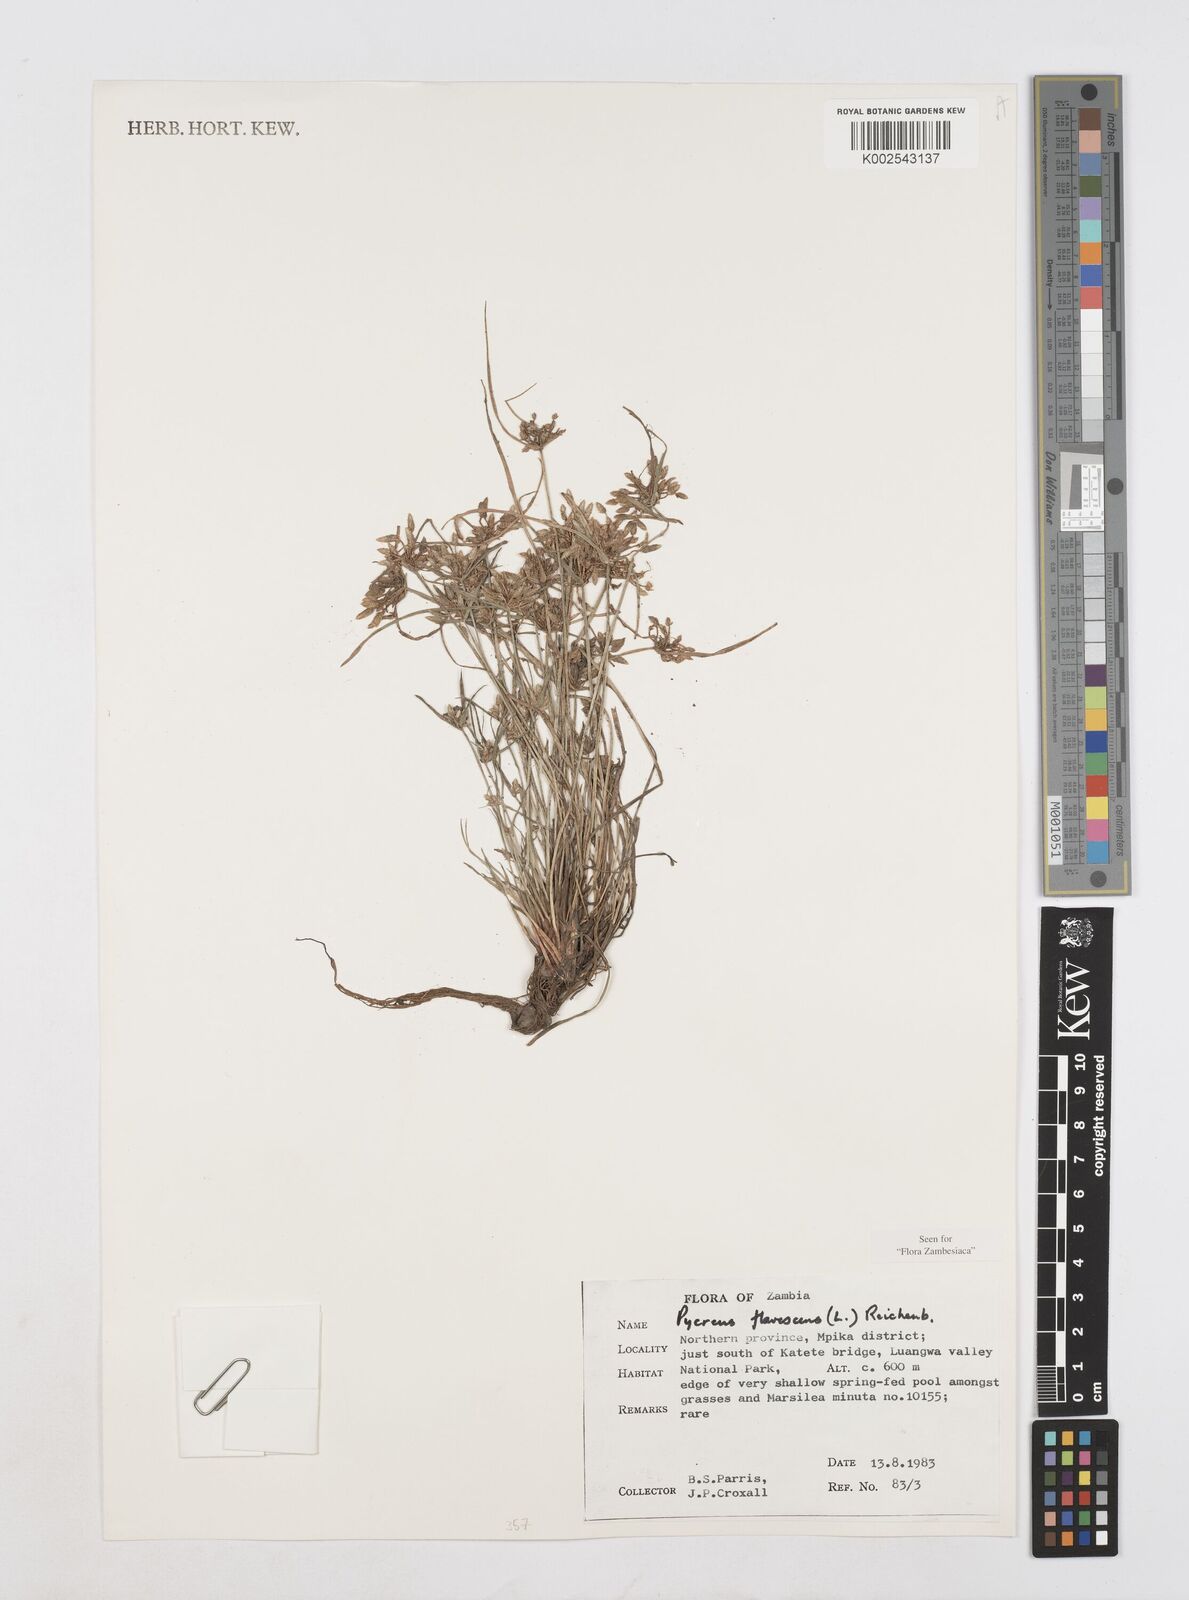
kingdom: Plantae
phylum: Tracheophyta
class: Liliopsida
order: Poales
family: Cyperaceae
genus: Cyperus
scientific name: Cyperus flavescens
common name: Yellow galingale
